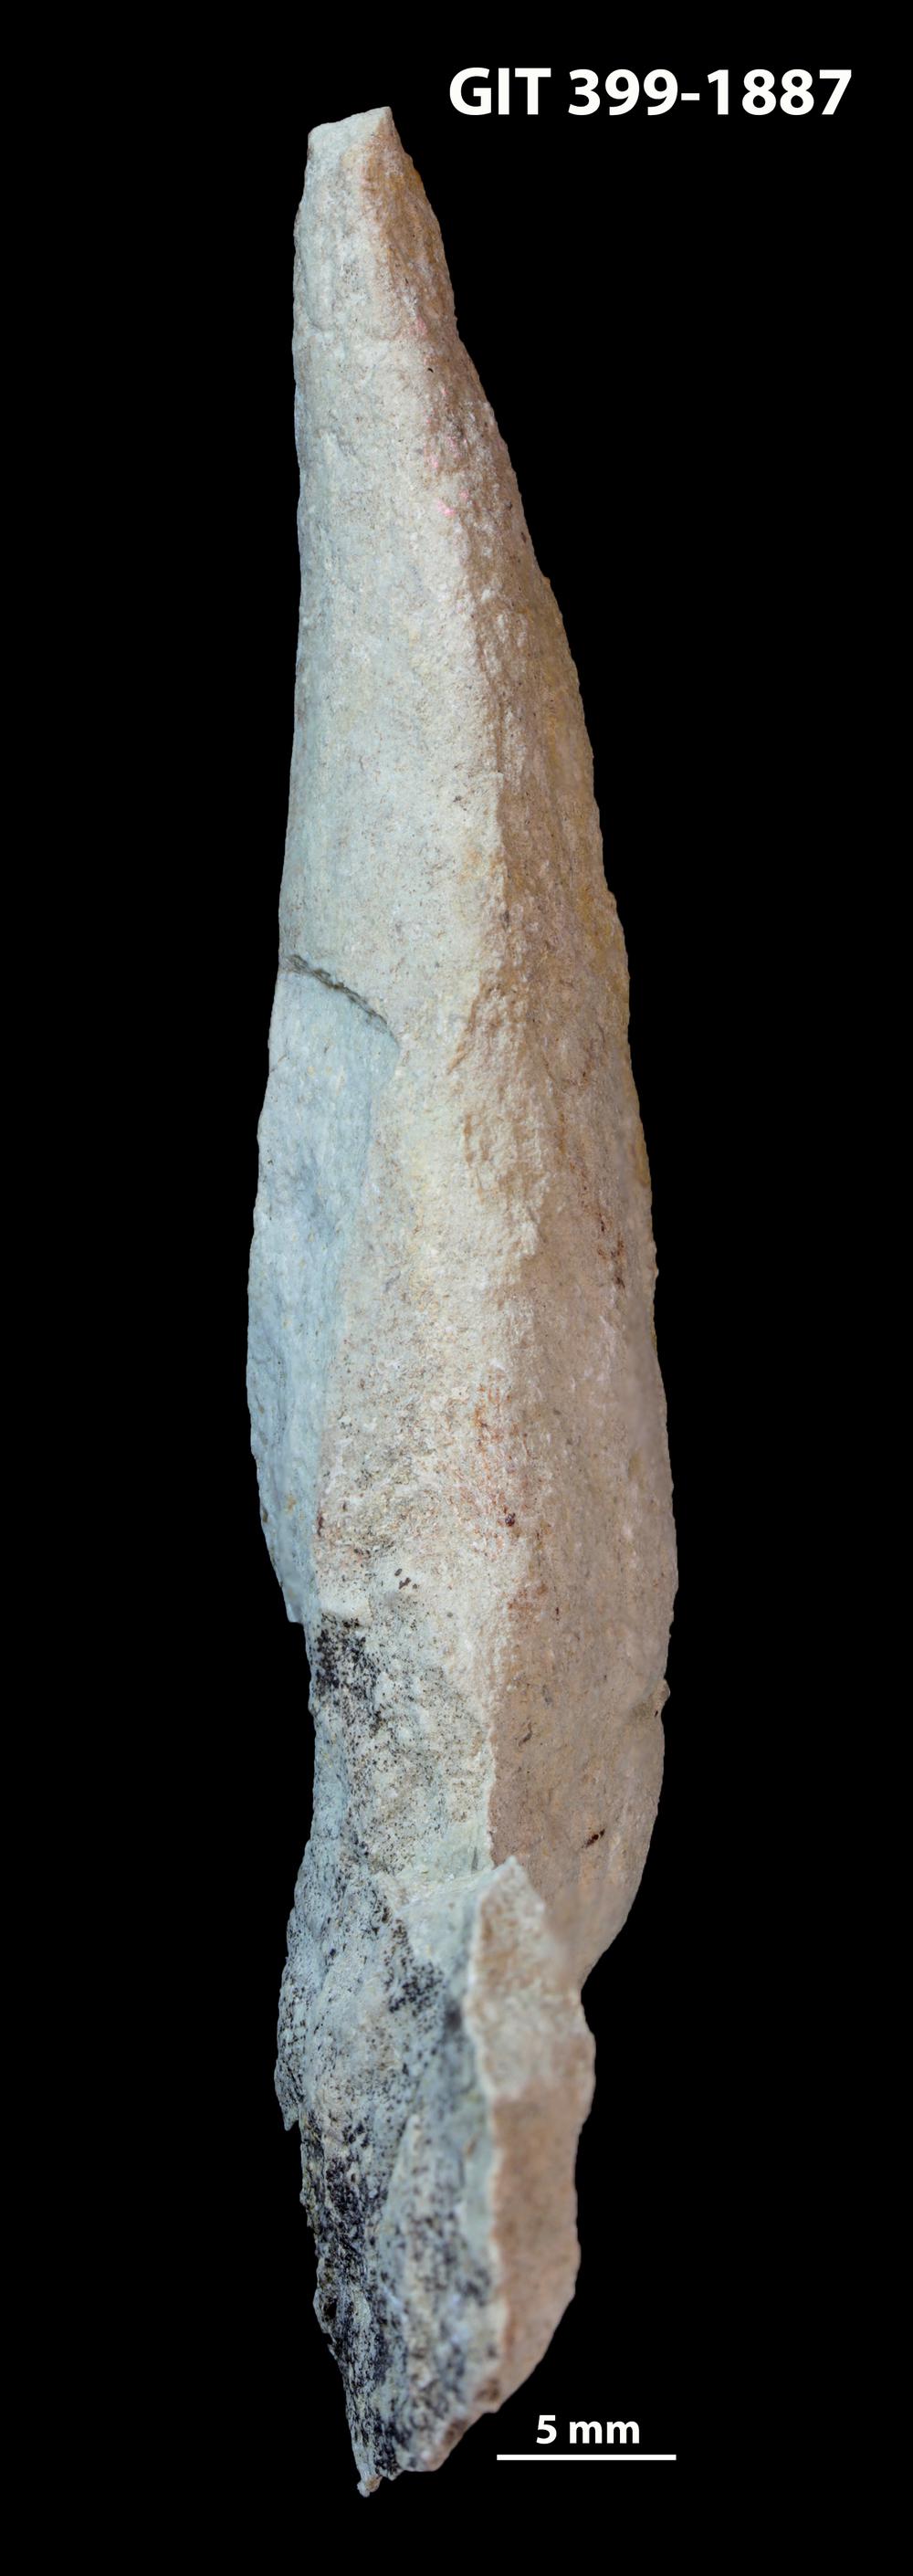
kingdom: Plantae
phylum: Chlorophyta
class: Ulvophyceae
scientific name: Ulvophyceae
